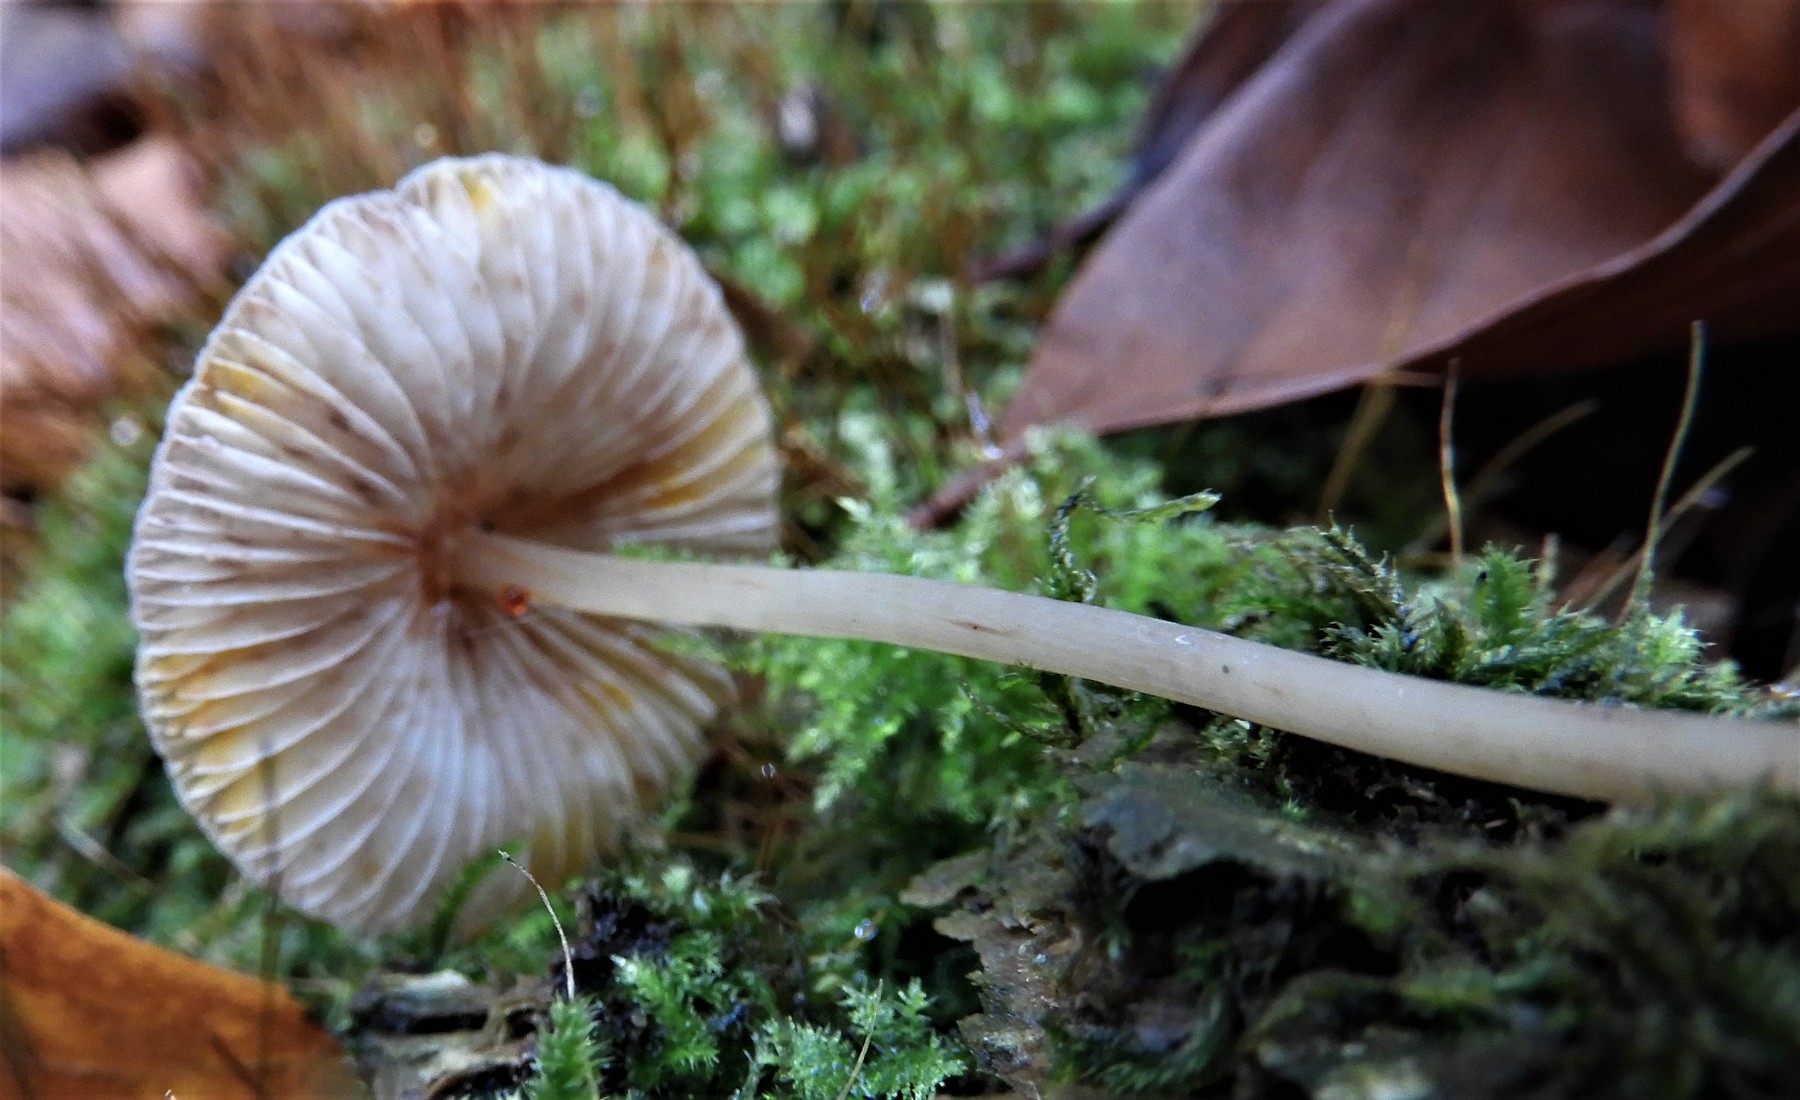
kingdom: Fungi
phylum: Basidiomycota
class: Agaricomycetes
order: Agaricales
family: Mycenaceae
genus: Mycena
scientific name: Mycena crocata
